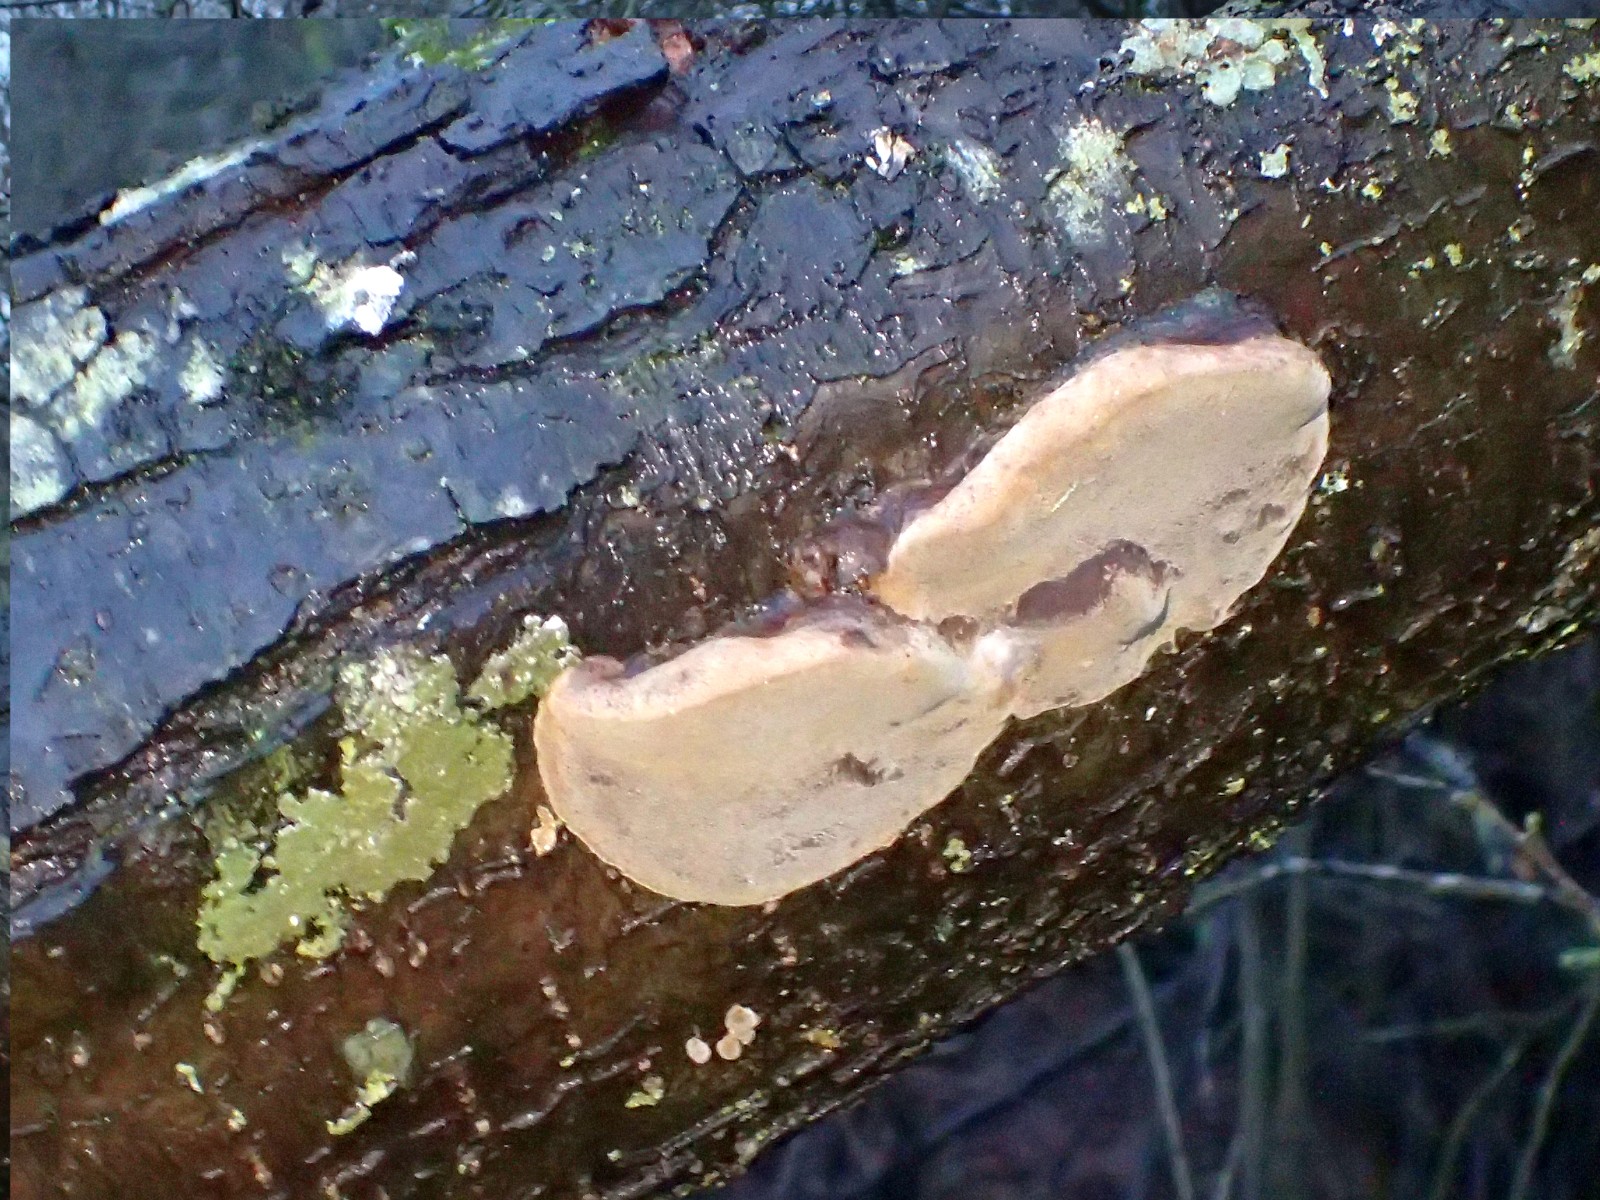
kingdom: Fungi
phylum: Basidiomycota
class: Agaricomycetes
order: Hymenochaetales
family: Hymenochaetaceae
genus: Phellinus
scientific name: Phellinus pomaceus
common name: blomme-ildporesvamp
